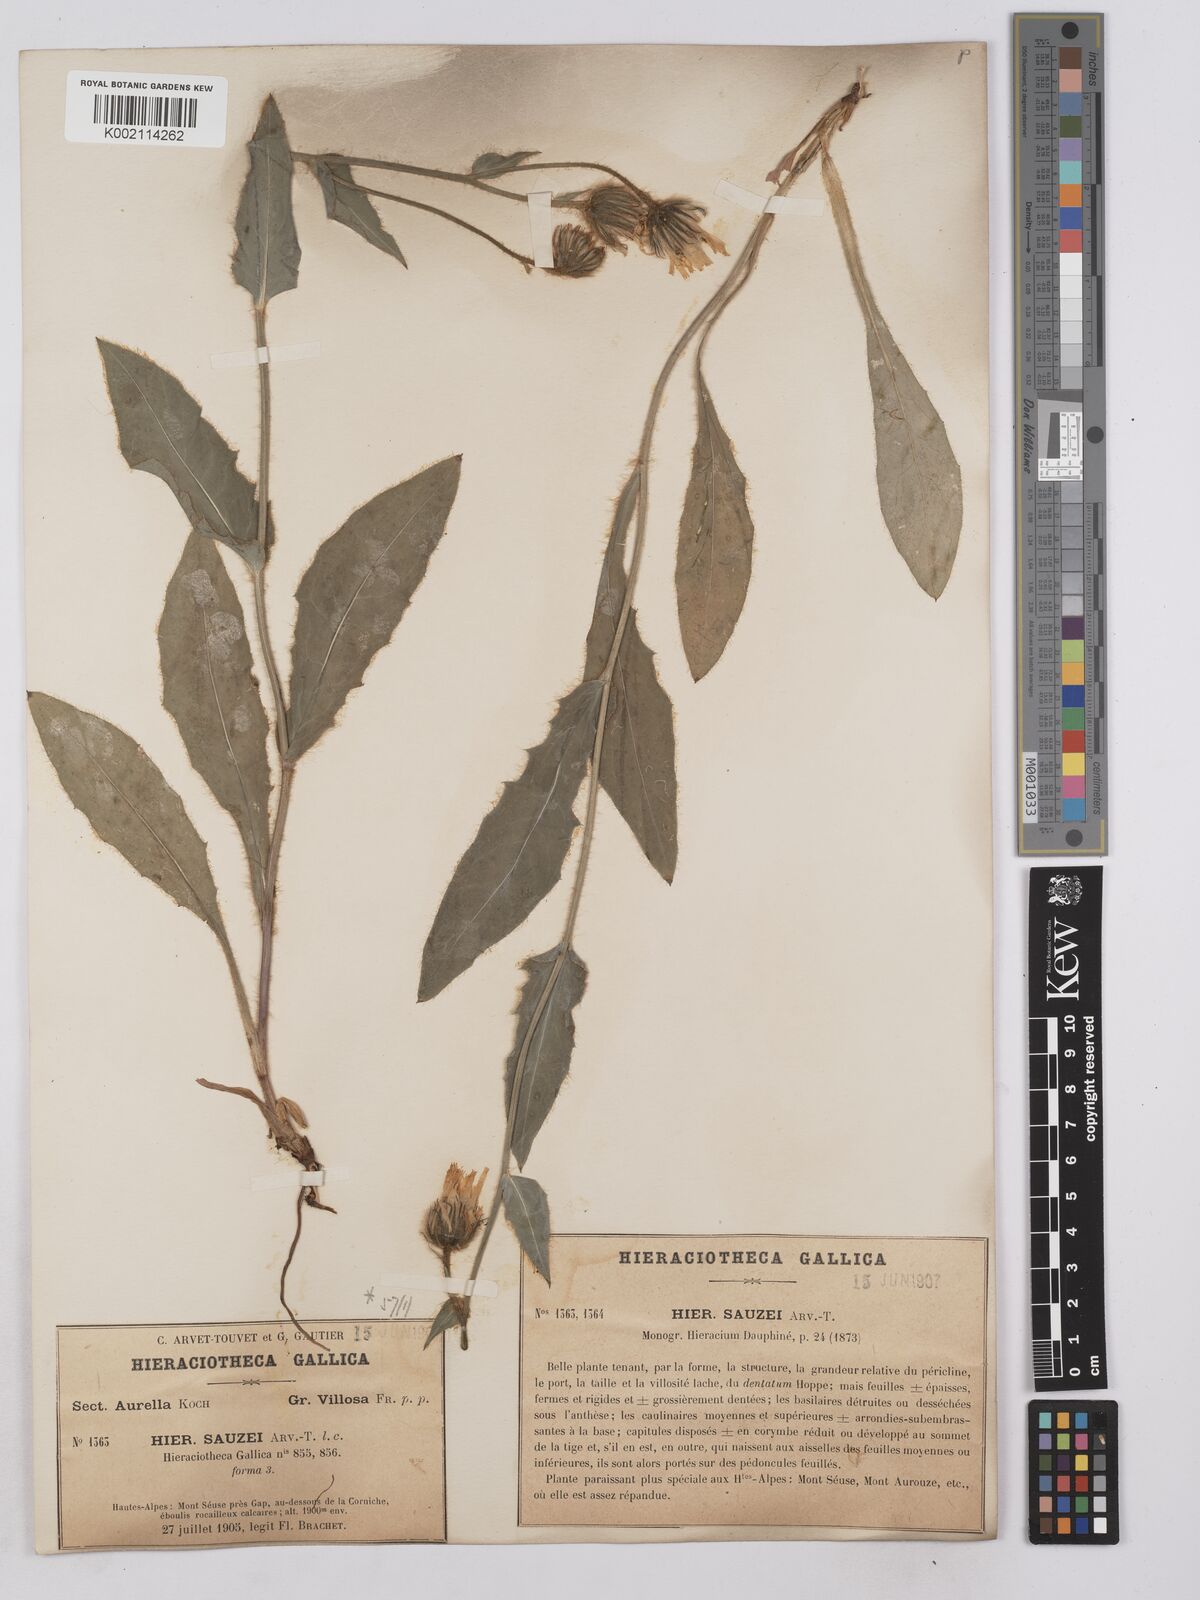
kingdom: Plantae
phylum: Tracheophyta
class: Magnoliopsida
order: Asterales
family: Asteraceae
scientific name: Asteraceae
